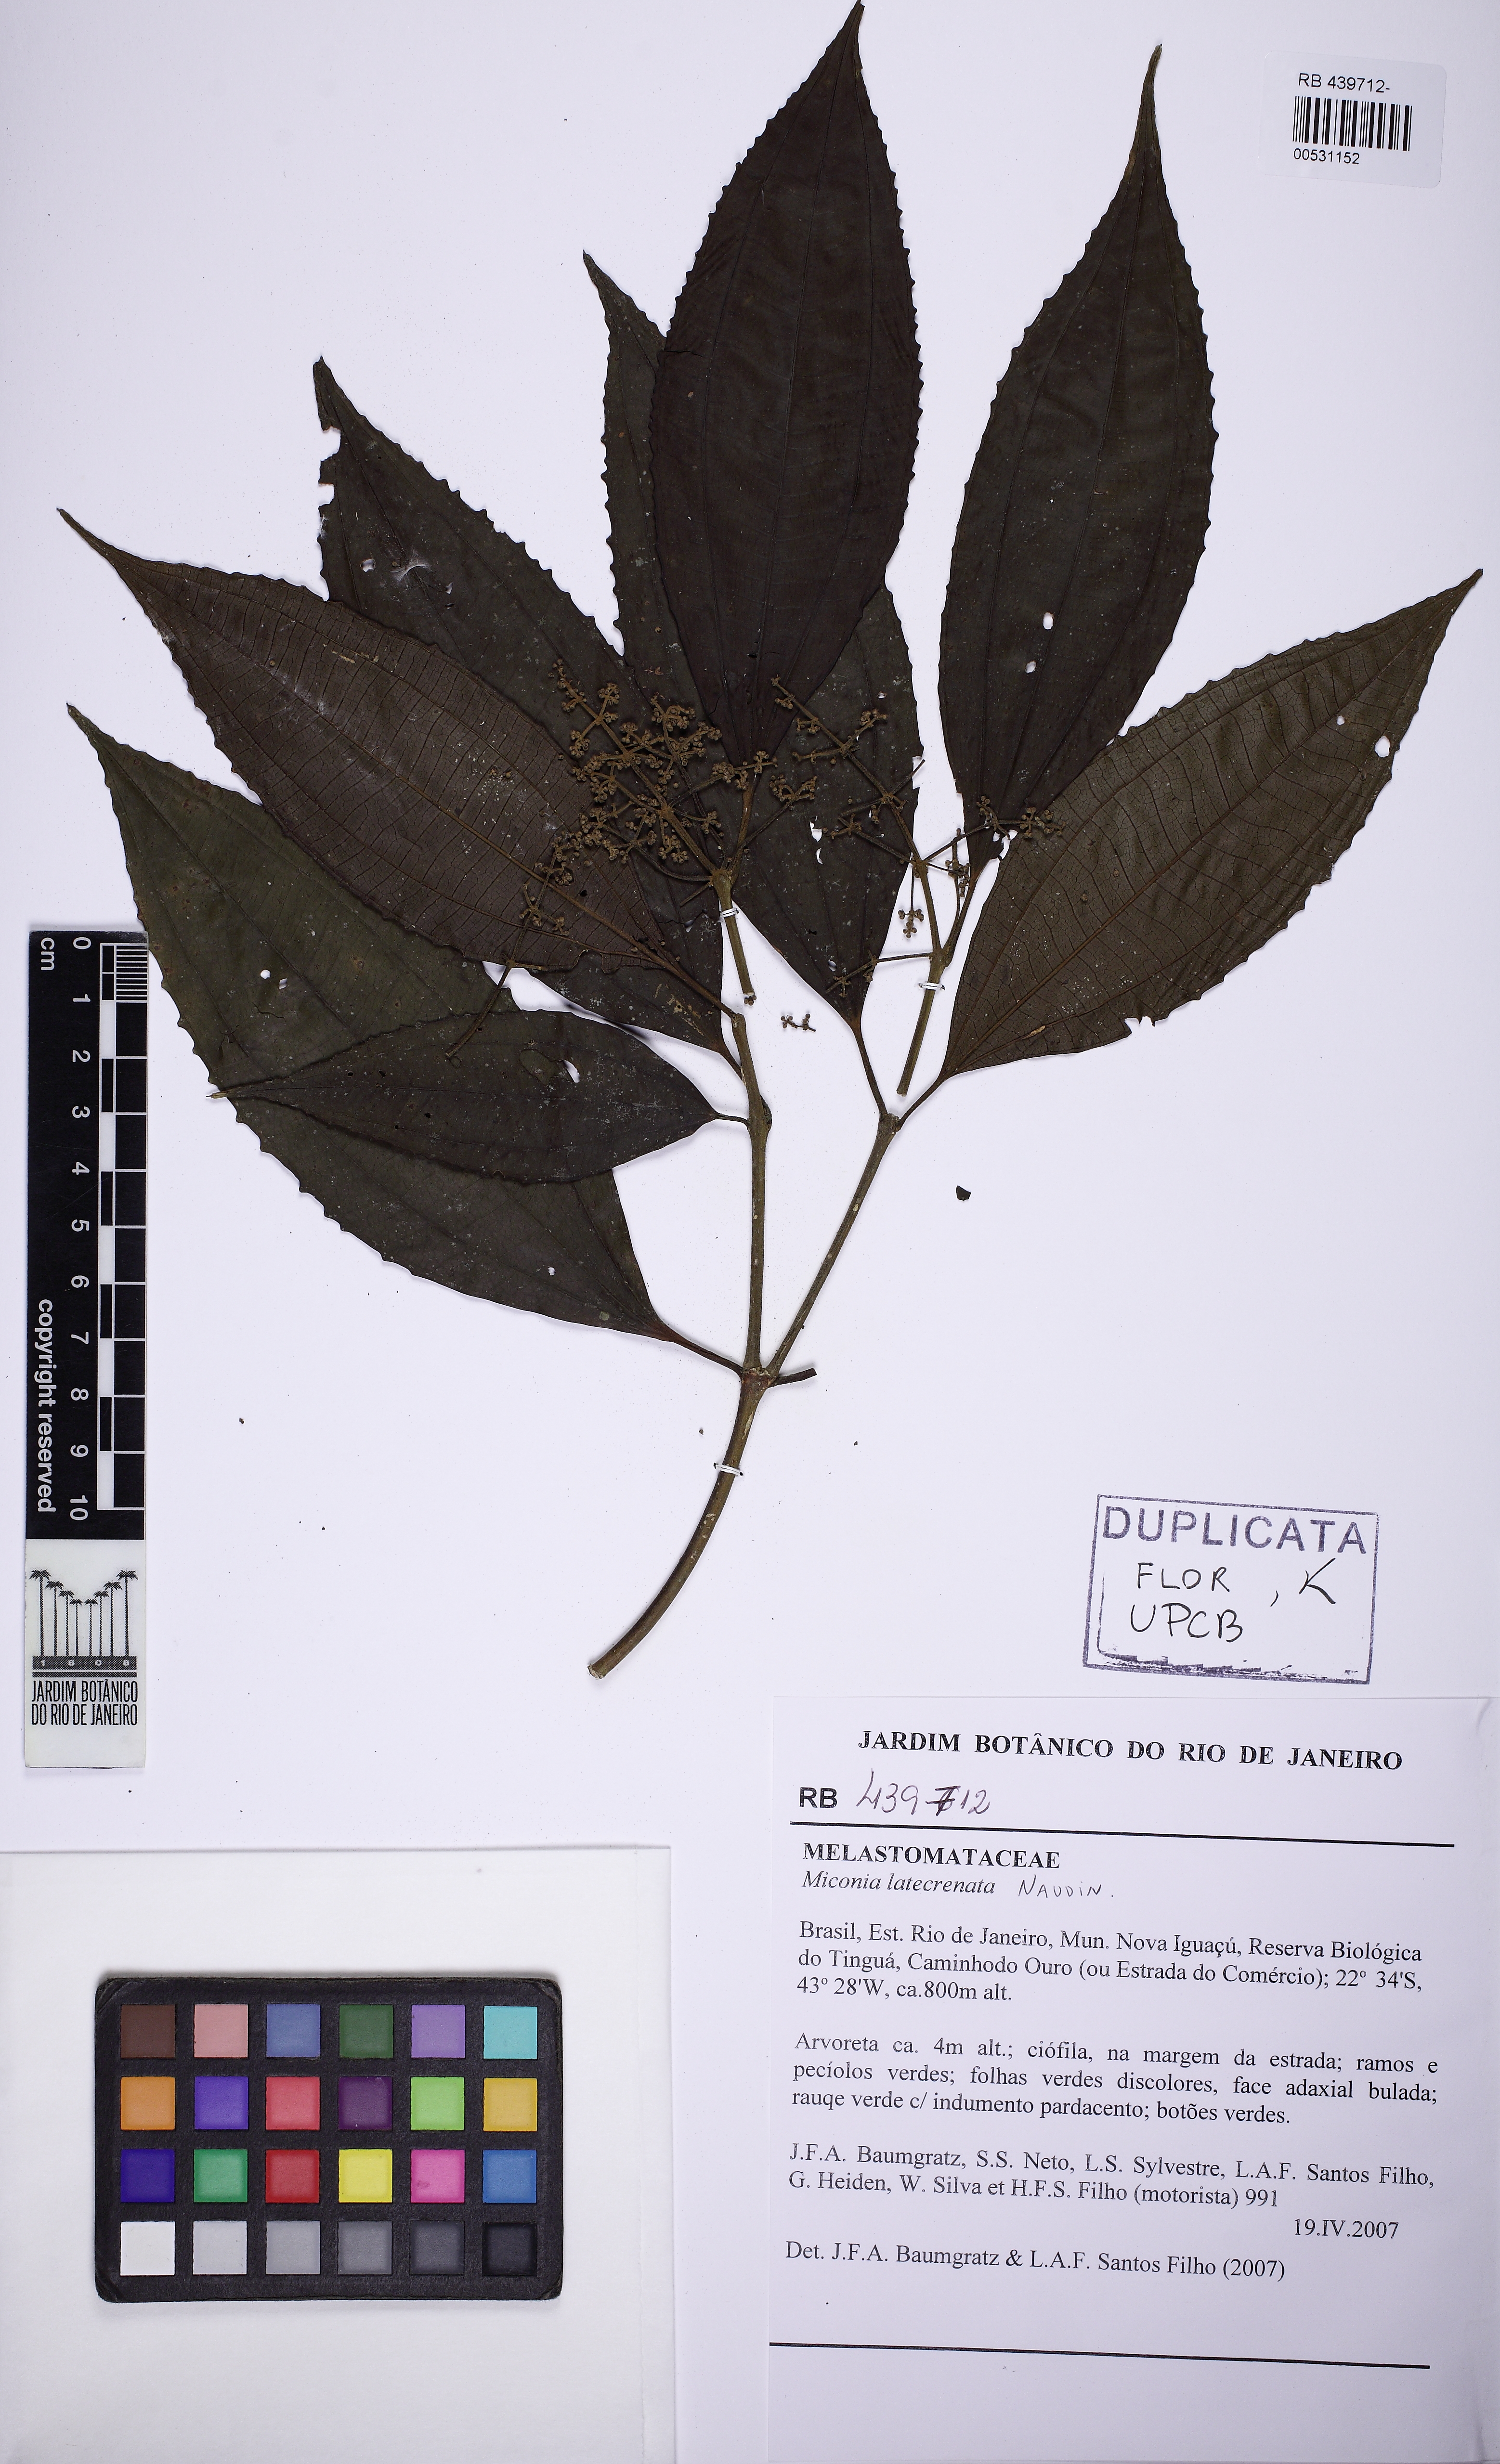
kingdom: Plantae
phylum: Tracheophyta
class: Magnoliopsida
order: Myrtales
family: Melastomataceae
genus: Miconia
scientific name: Miconia latecrenata
